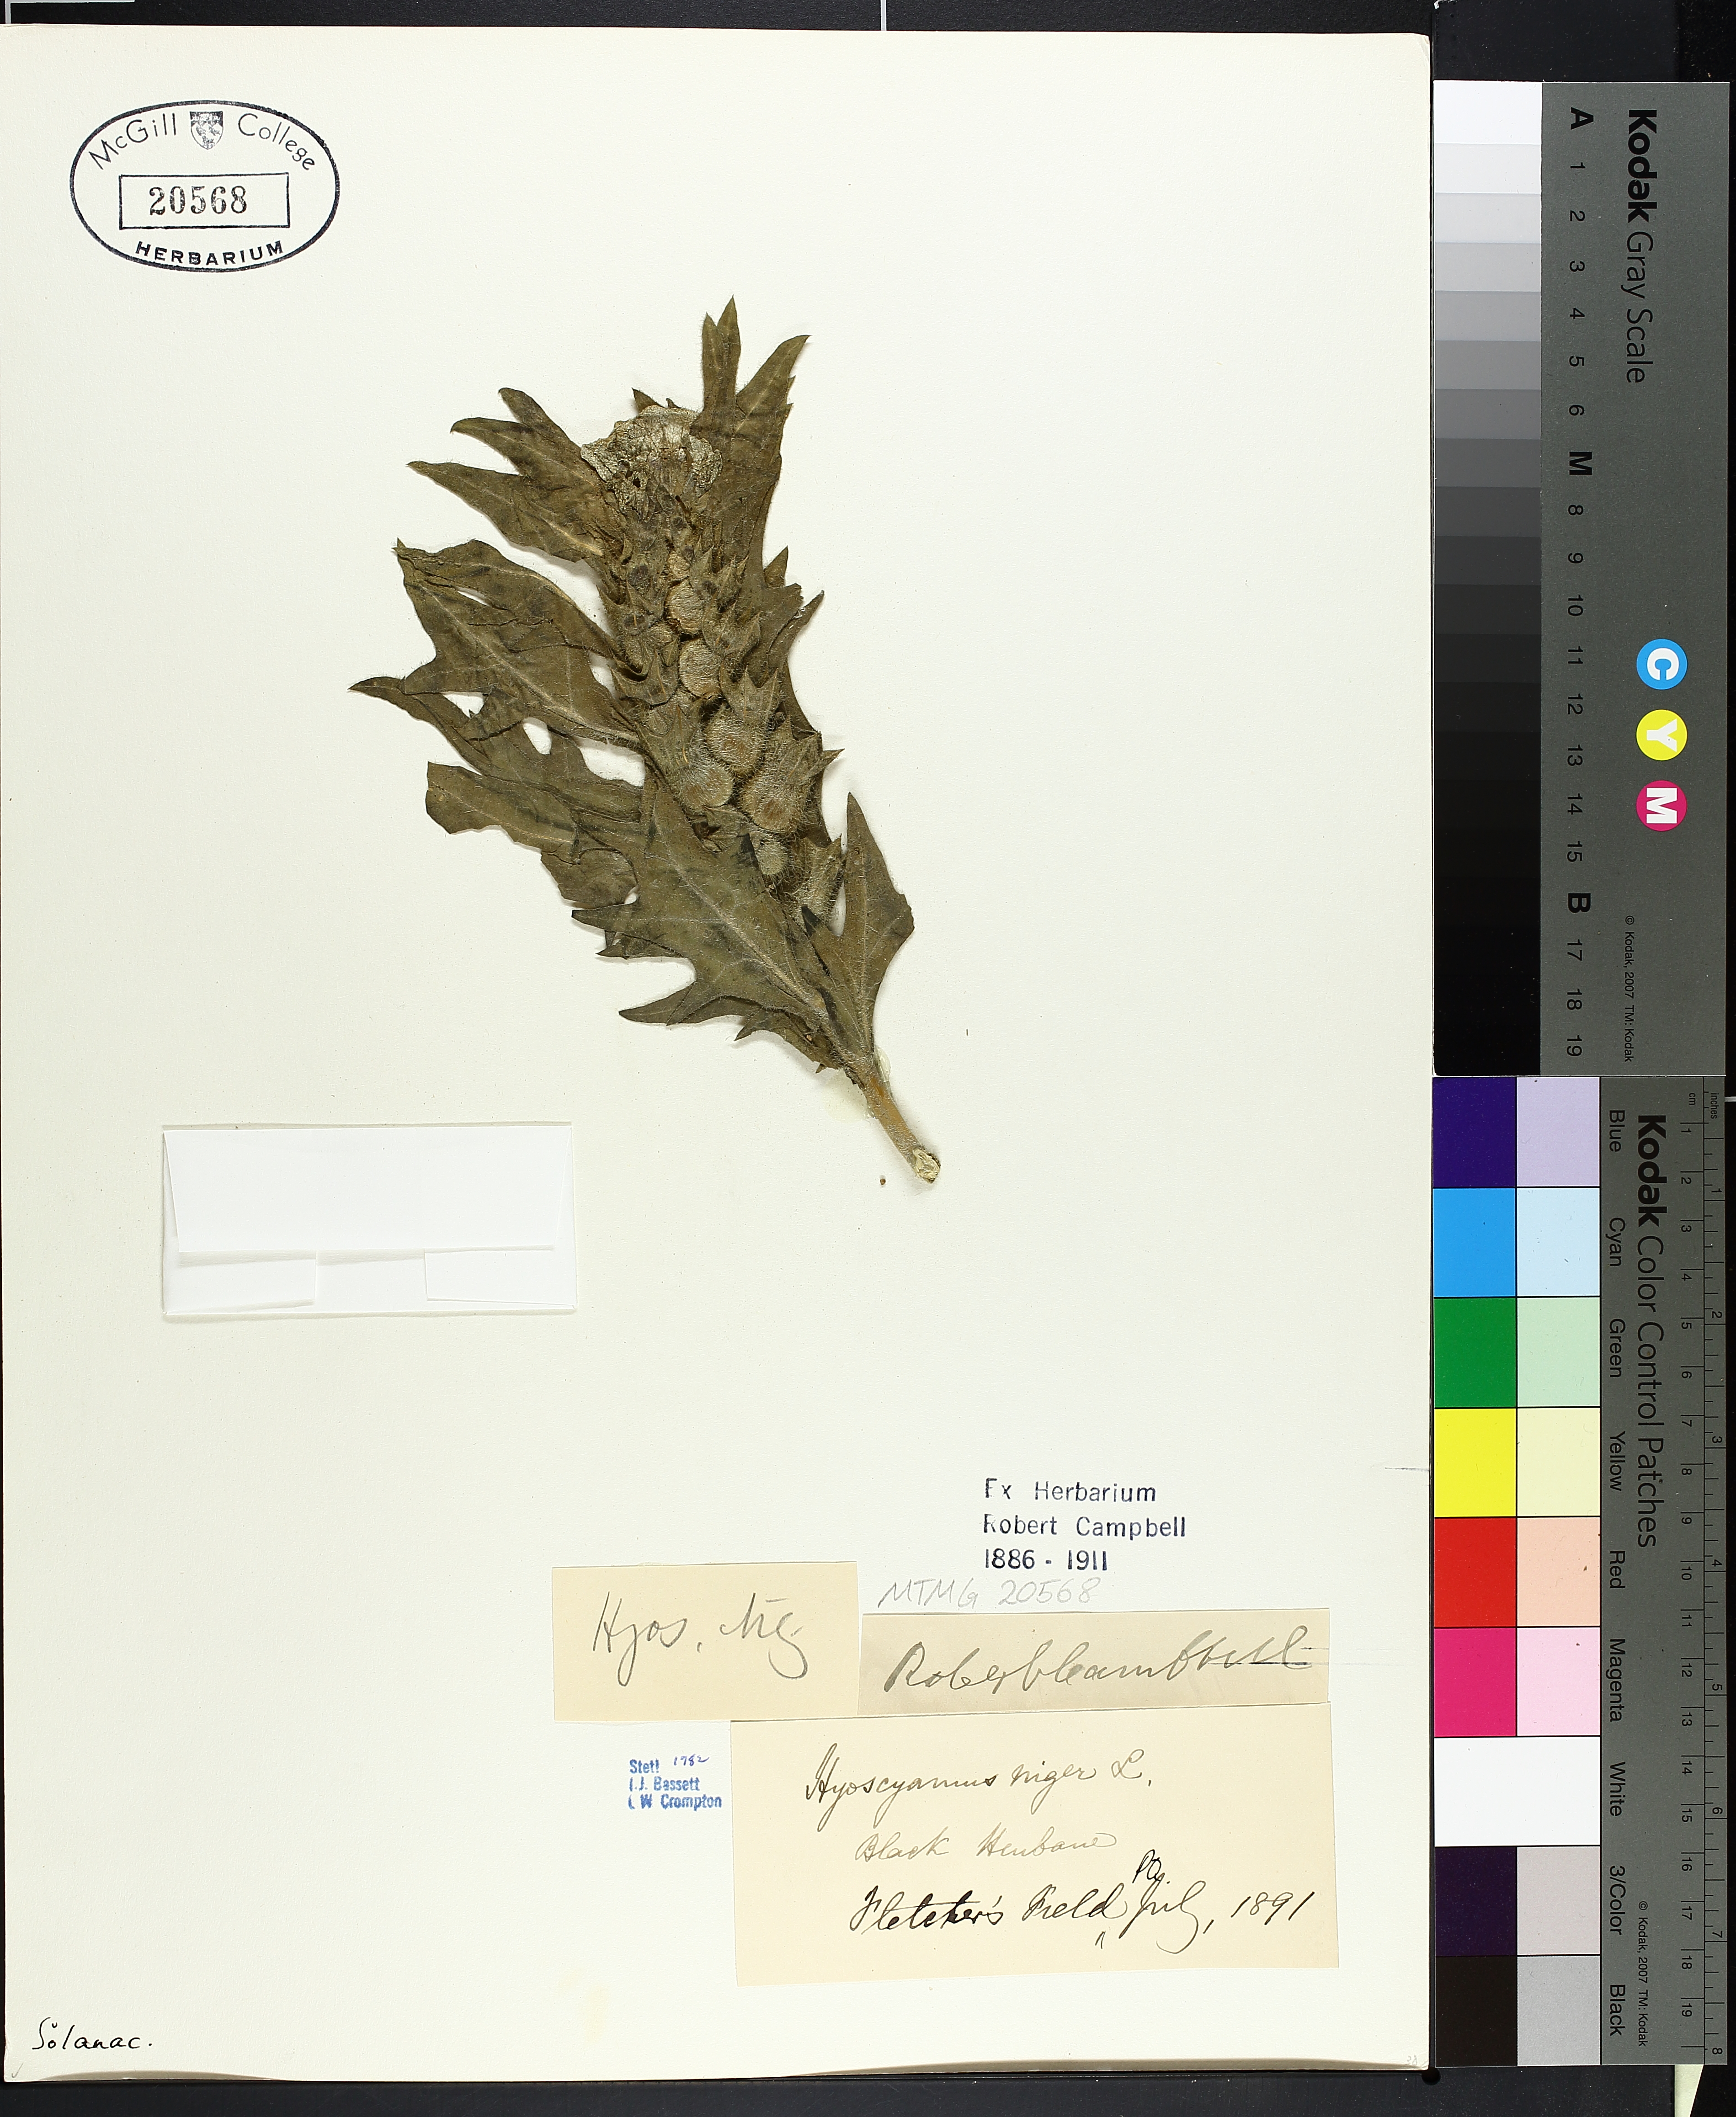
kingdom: Plantae
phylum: Tracheophyta
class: Magnoliopsida
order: Solanales
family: Solanaceae
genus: Hyoscyamus
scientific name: Hyoscyamus niger
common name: Henbane
